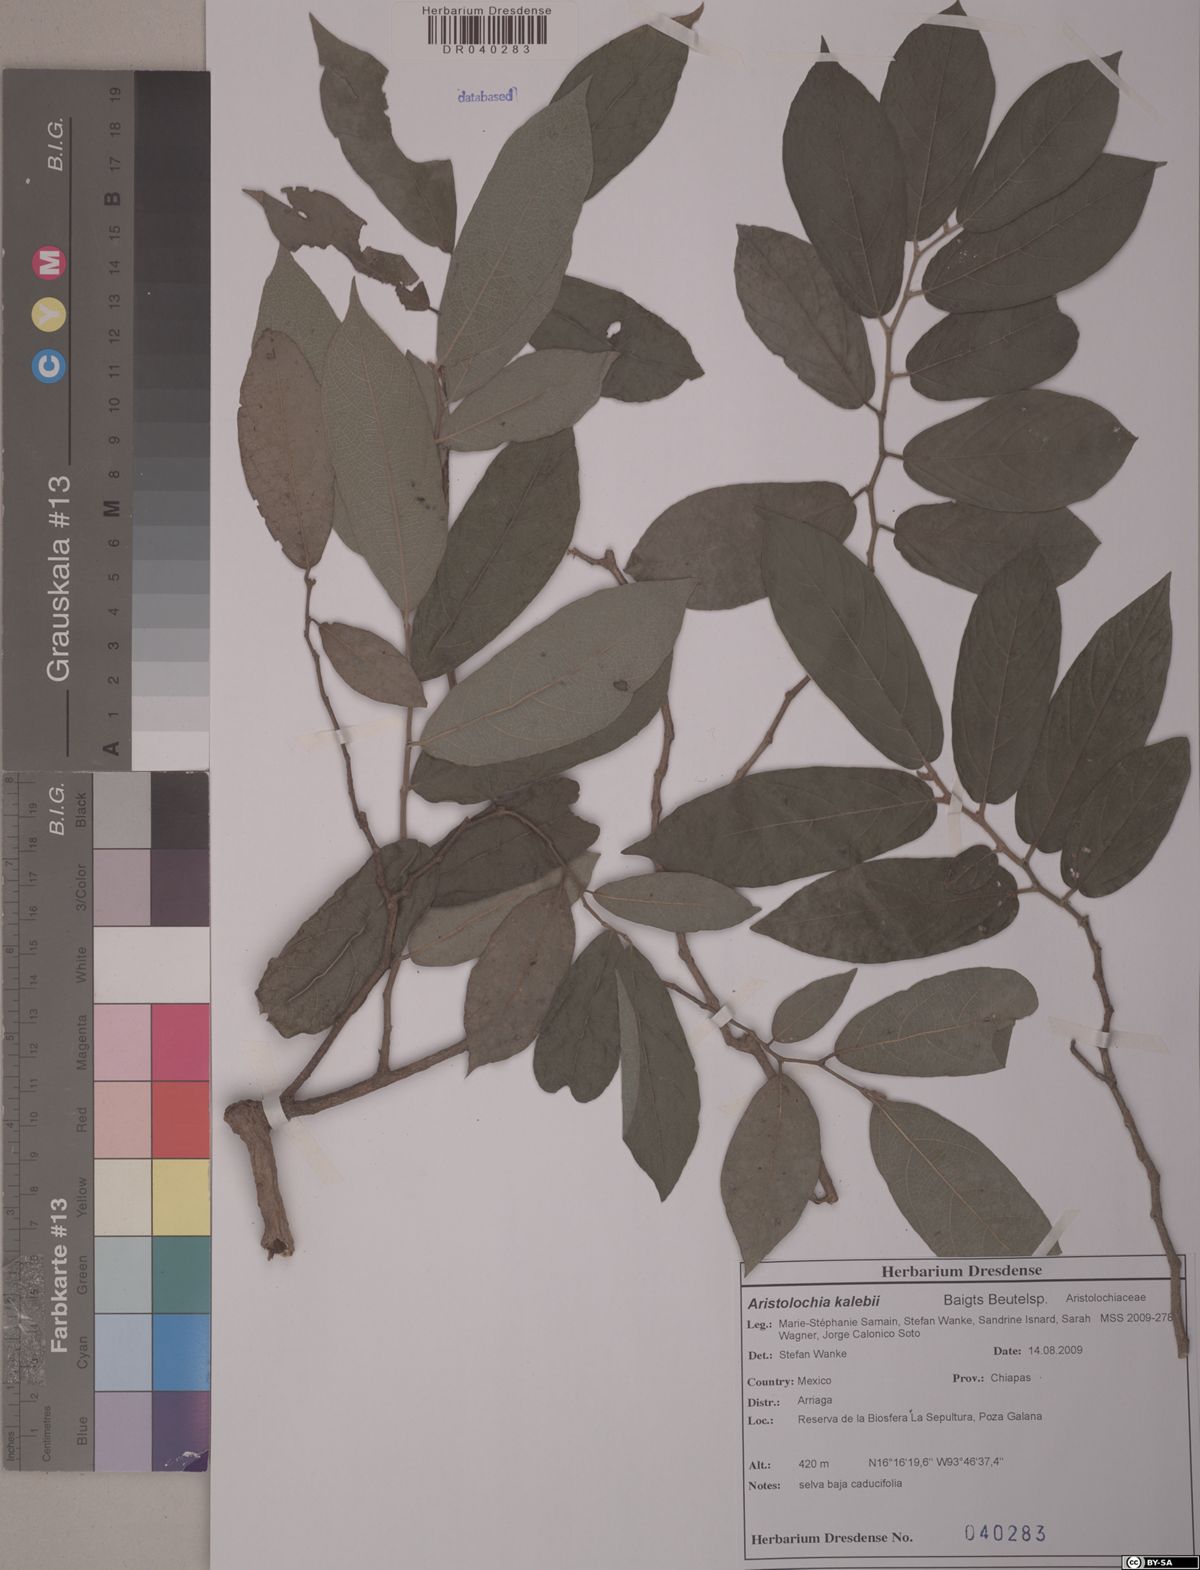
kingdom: Plantae
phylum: Tracheophyta
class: Magnoliopsida
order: Piperales
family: Aristolochiaceae
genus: Isotrema
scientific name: Isotrema bullatum
